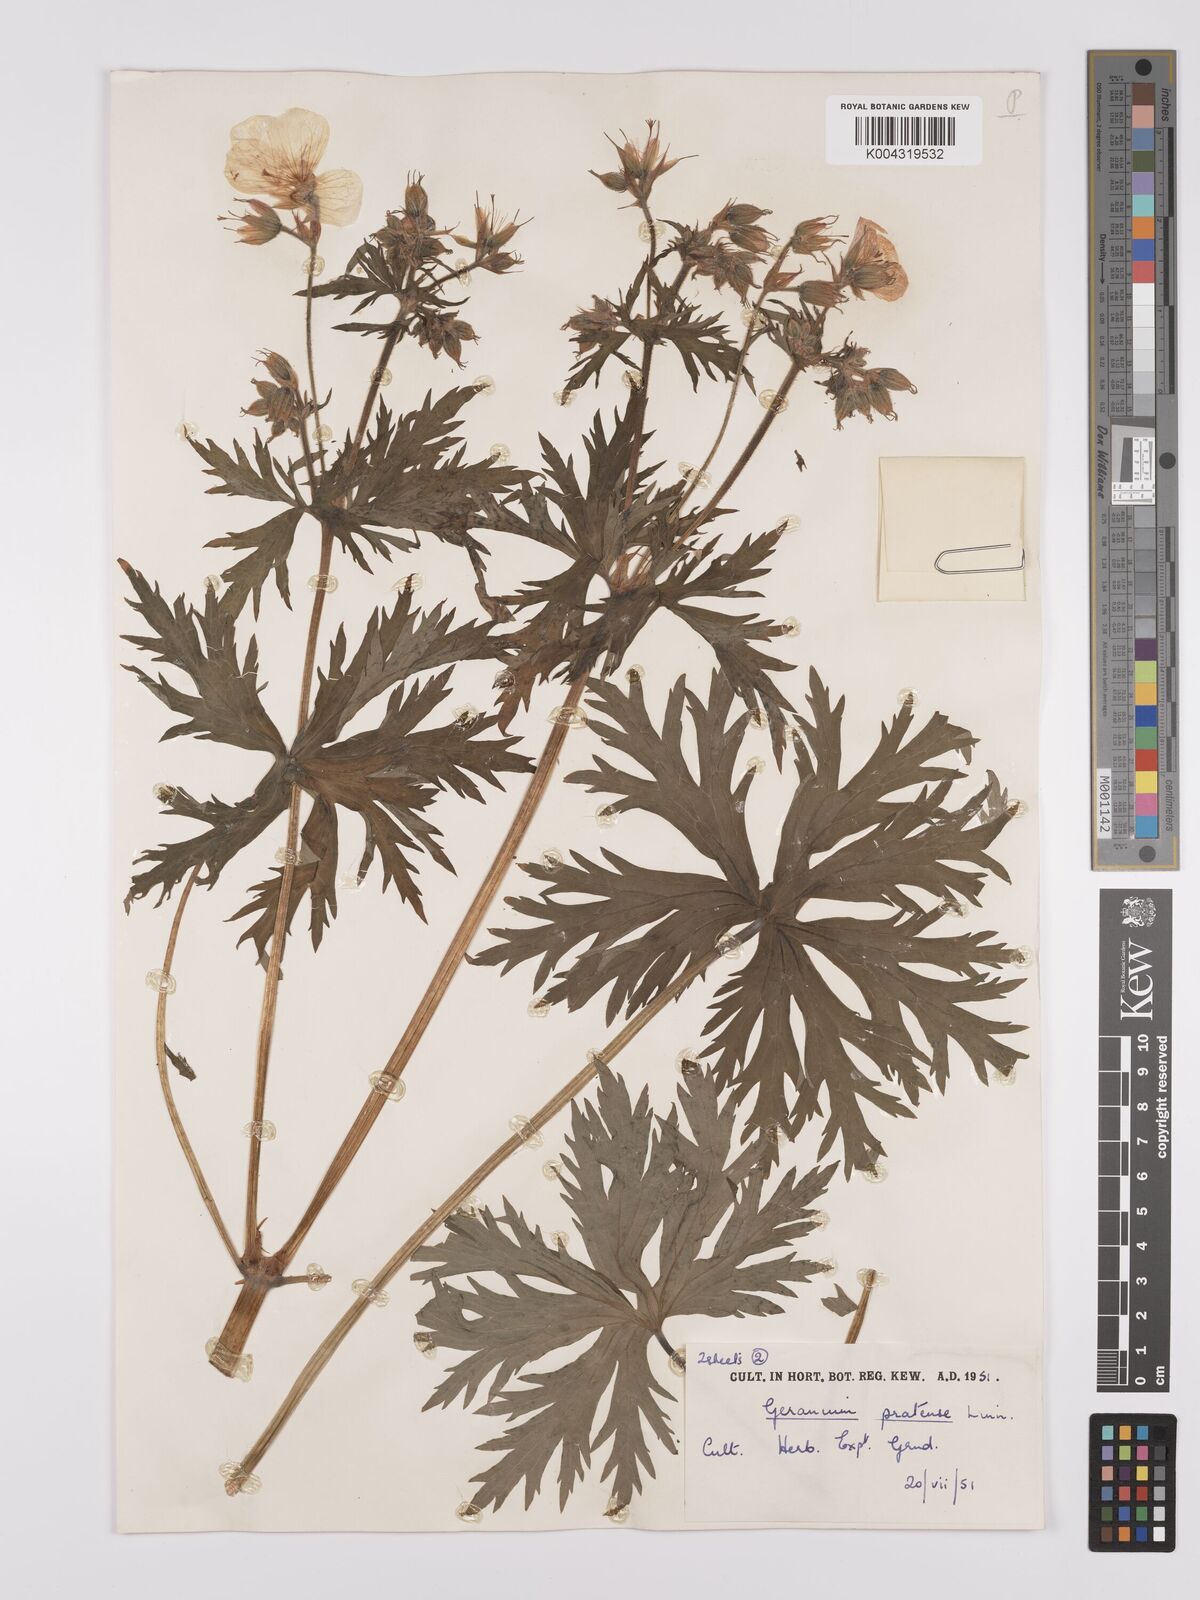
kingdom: Plantae
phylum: Tracheophyta
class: Magnoliopsida
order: Geraniales
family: Geraniaceae
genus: Geranium
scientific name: Geranium pratense
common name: Meadow crane's-bill
